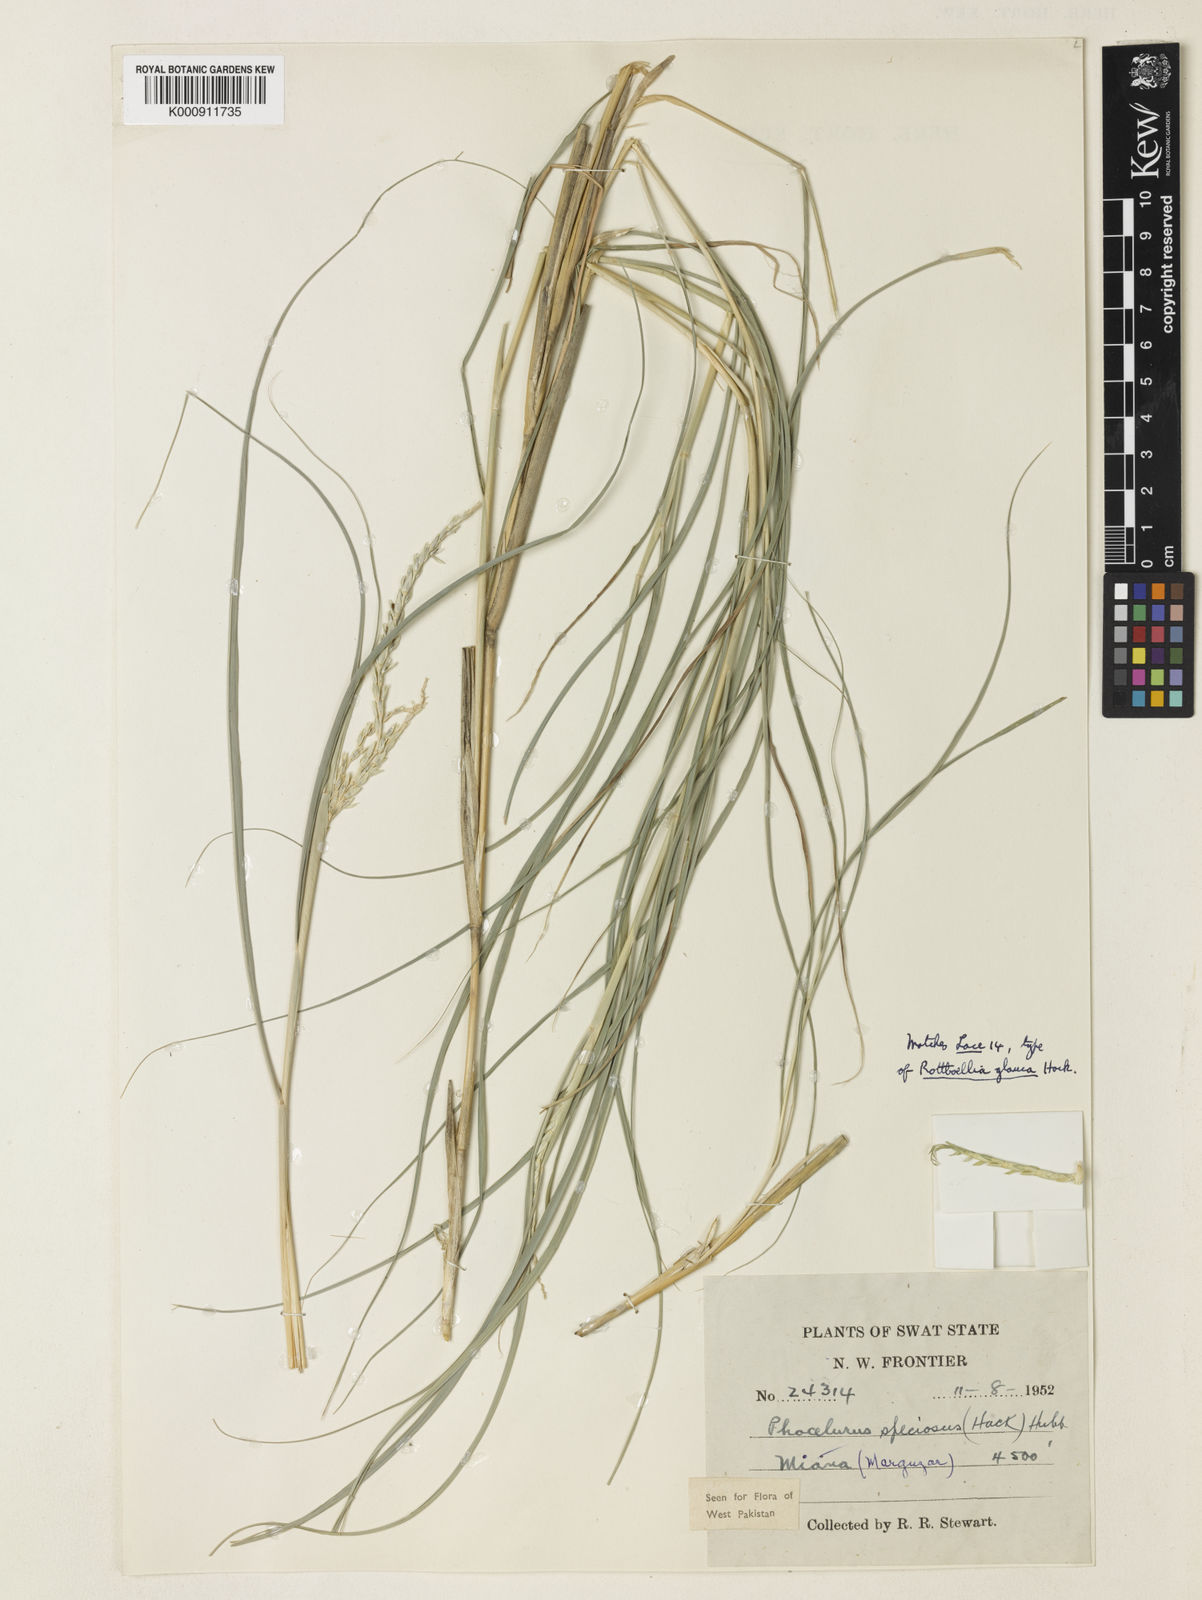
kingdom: Plantae
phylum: Tracheophyta
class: Liliopsida
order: Poales
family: Poaceae
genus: Phacelurus
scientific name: Phacelurus speciosus
